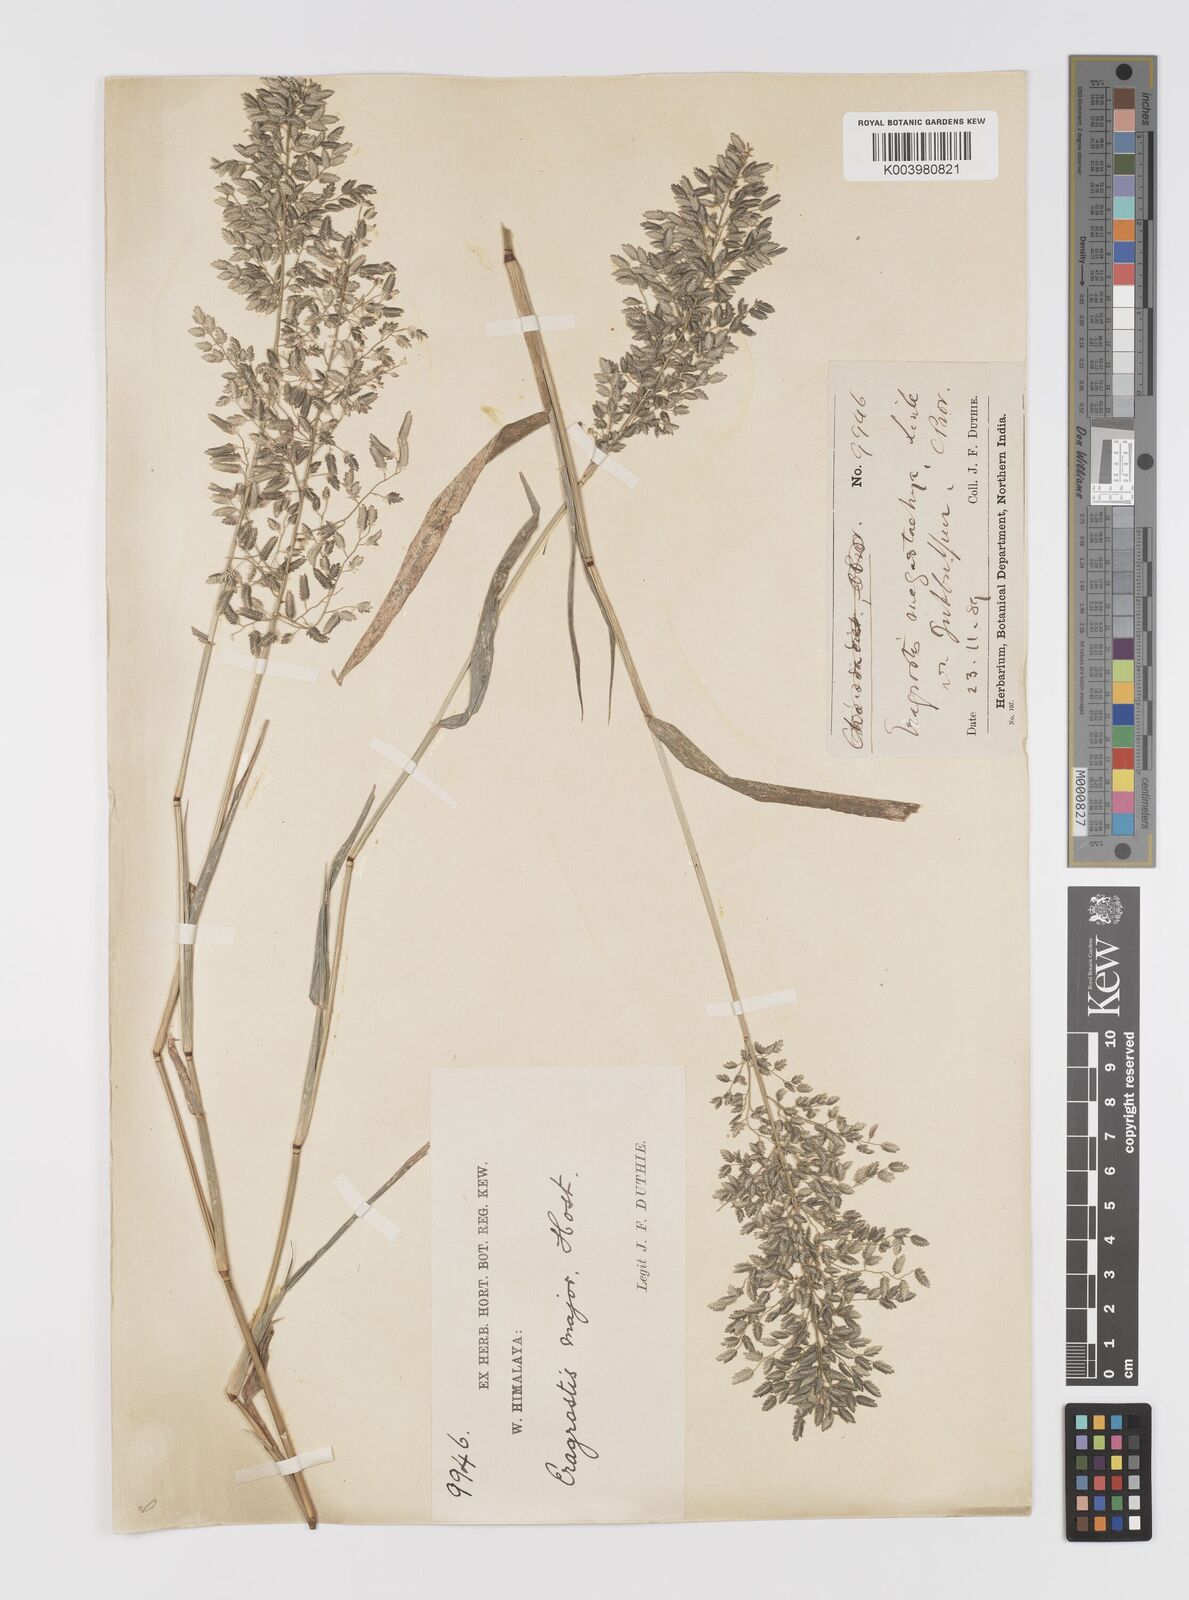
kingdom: Plantae
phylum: Tracheophyta
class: Liliopsida
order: Poales
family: Poaceae
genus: Eragrostis
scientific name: Eragrostis cilianensis
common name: Stinkgrass
